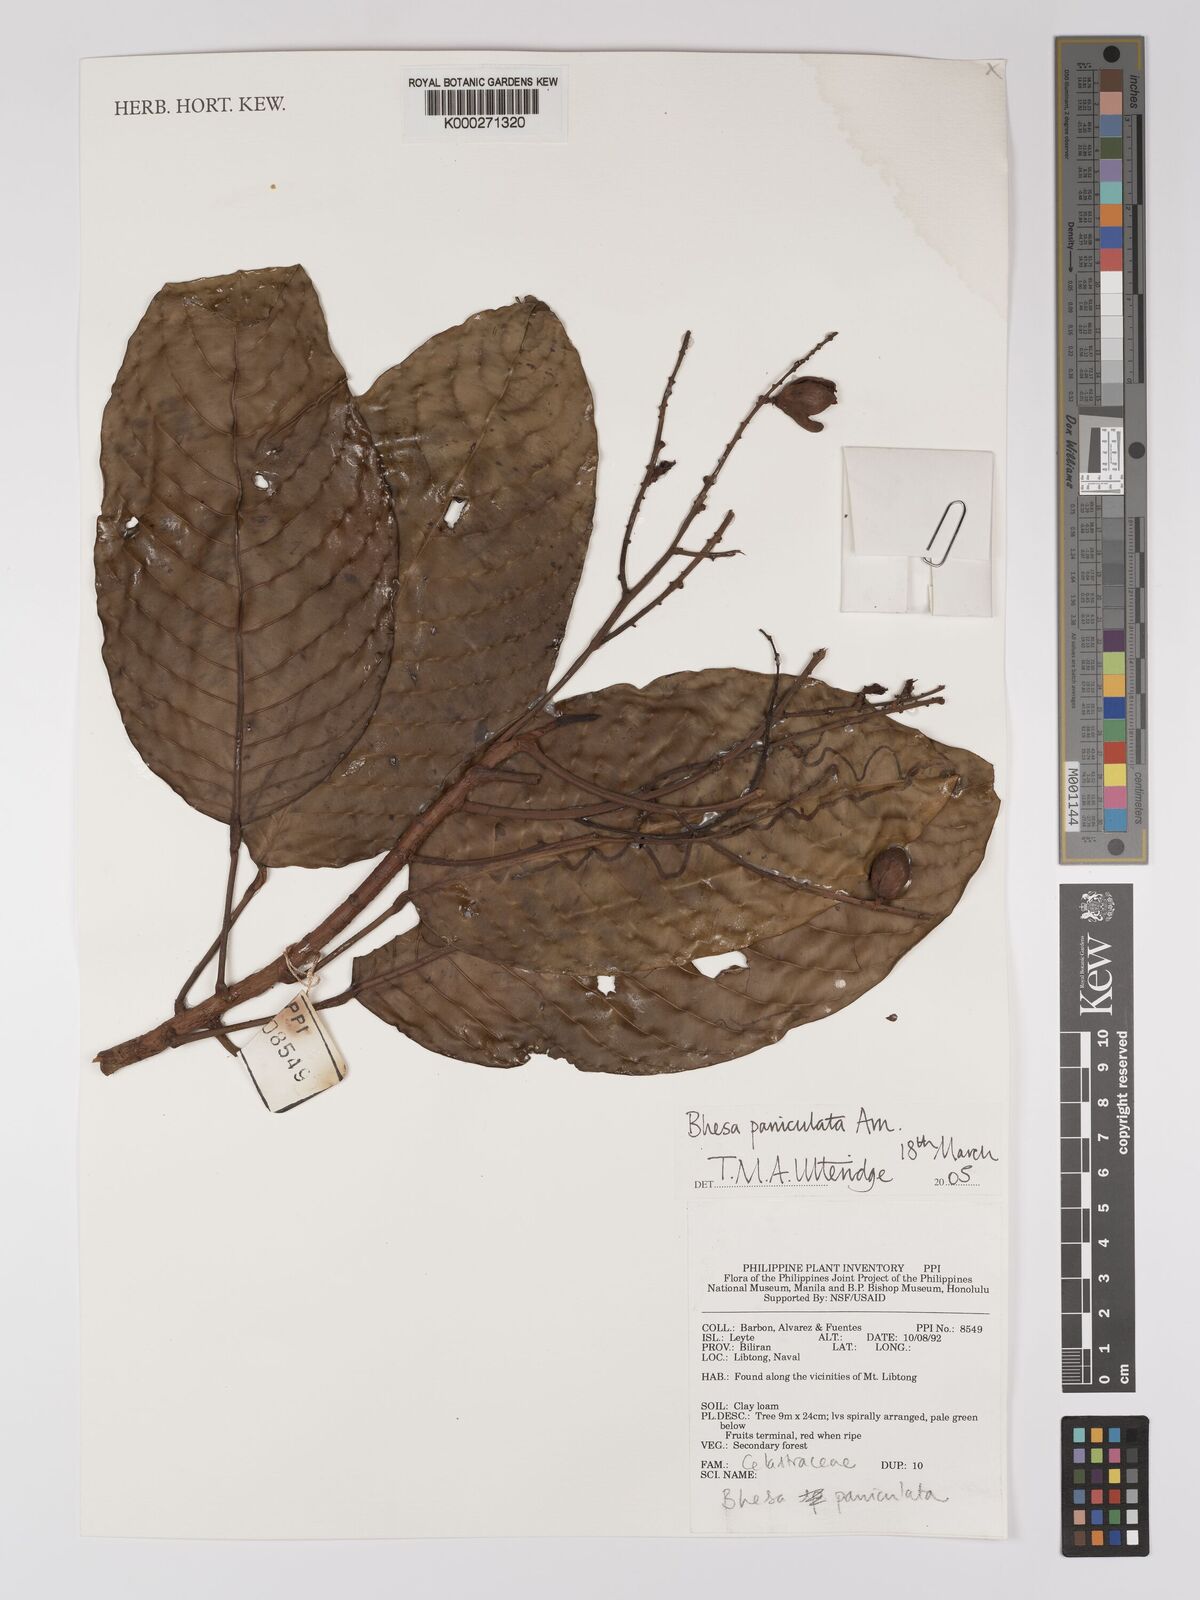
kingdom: Plantae
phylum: Tracheophyta
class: Magnoliopsida
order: Malpighiales
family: Centroplacaceae
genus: Bhesa
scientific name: Bhesa paniculata
